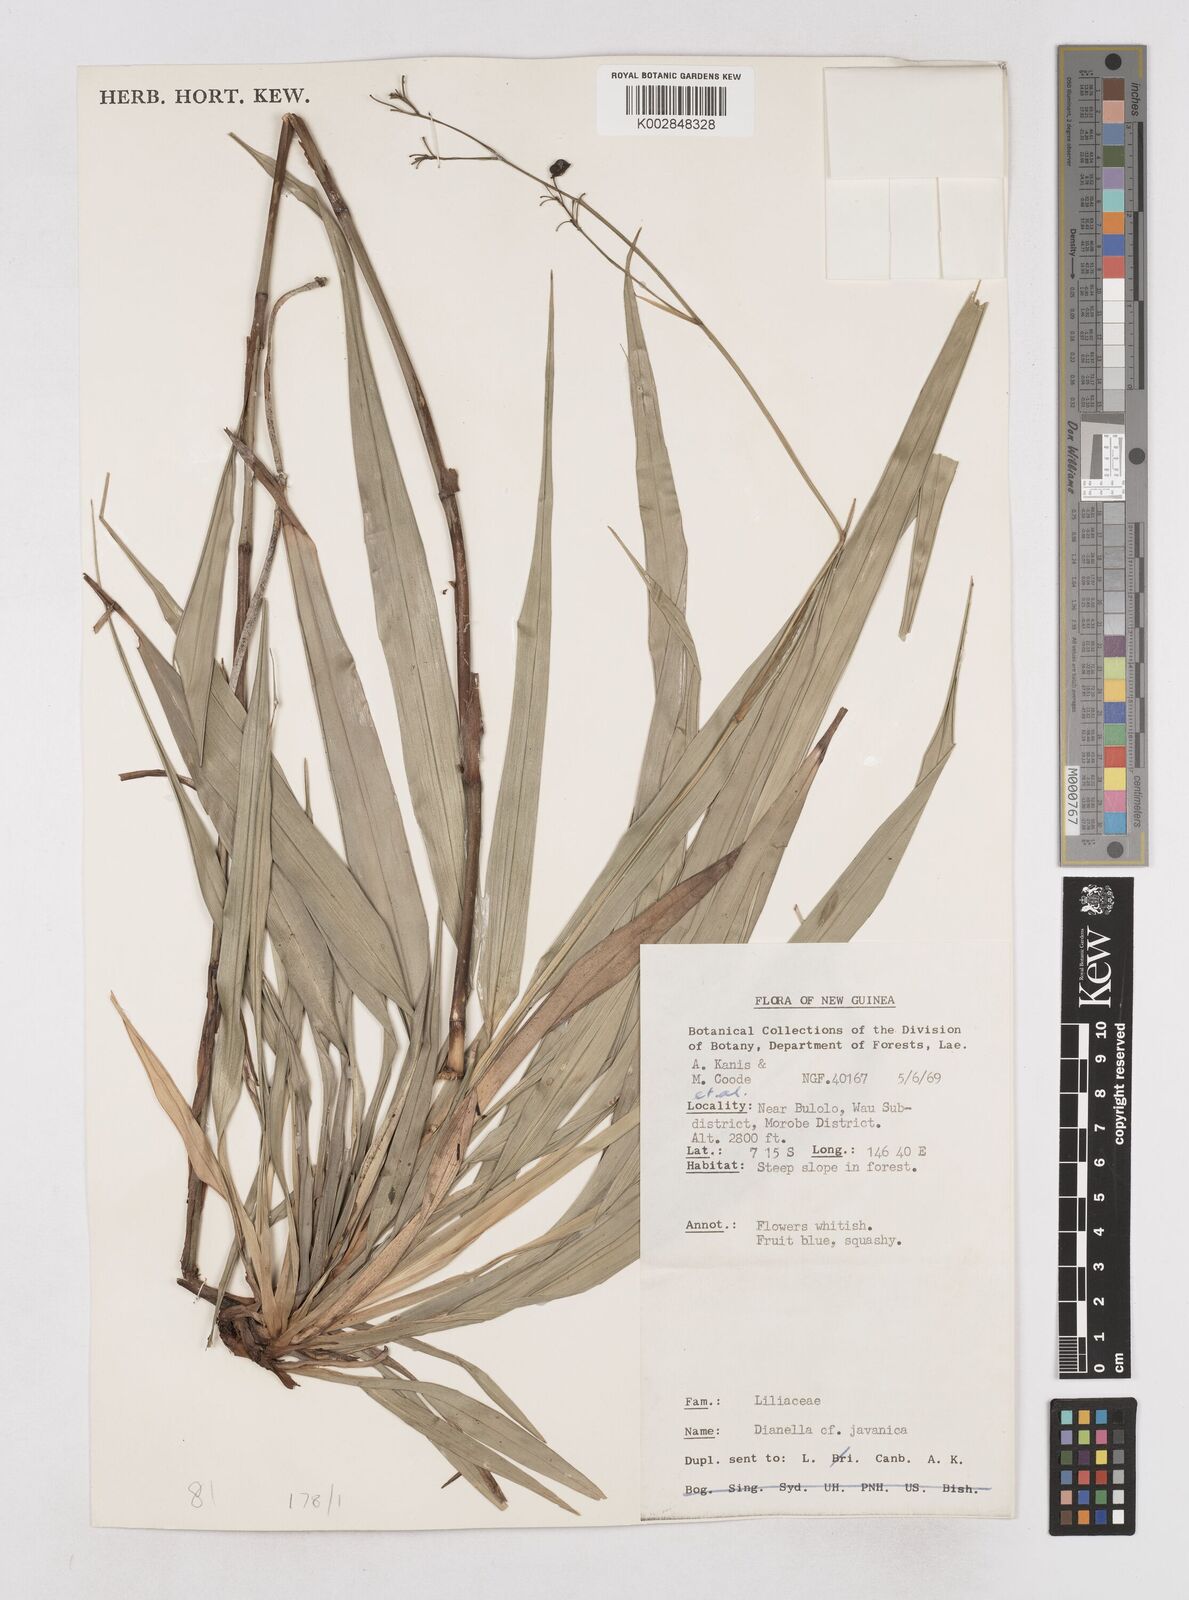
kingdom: Plantae
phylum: Tracheophyta
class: Liliopsida
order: Asparagales
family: Asphodelaceae
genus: Dianella
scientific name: Dianella ensifolia
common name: New zealand lilyplant
